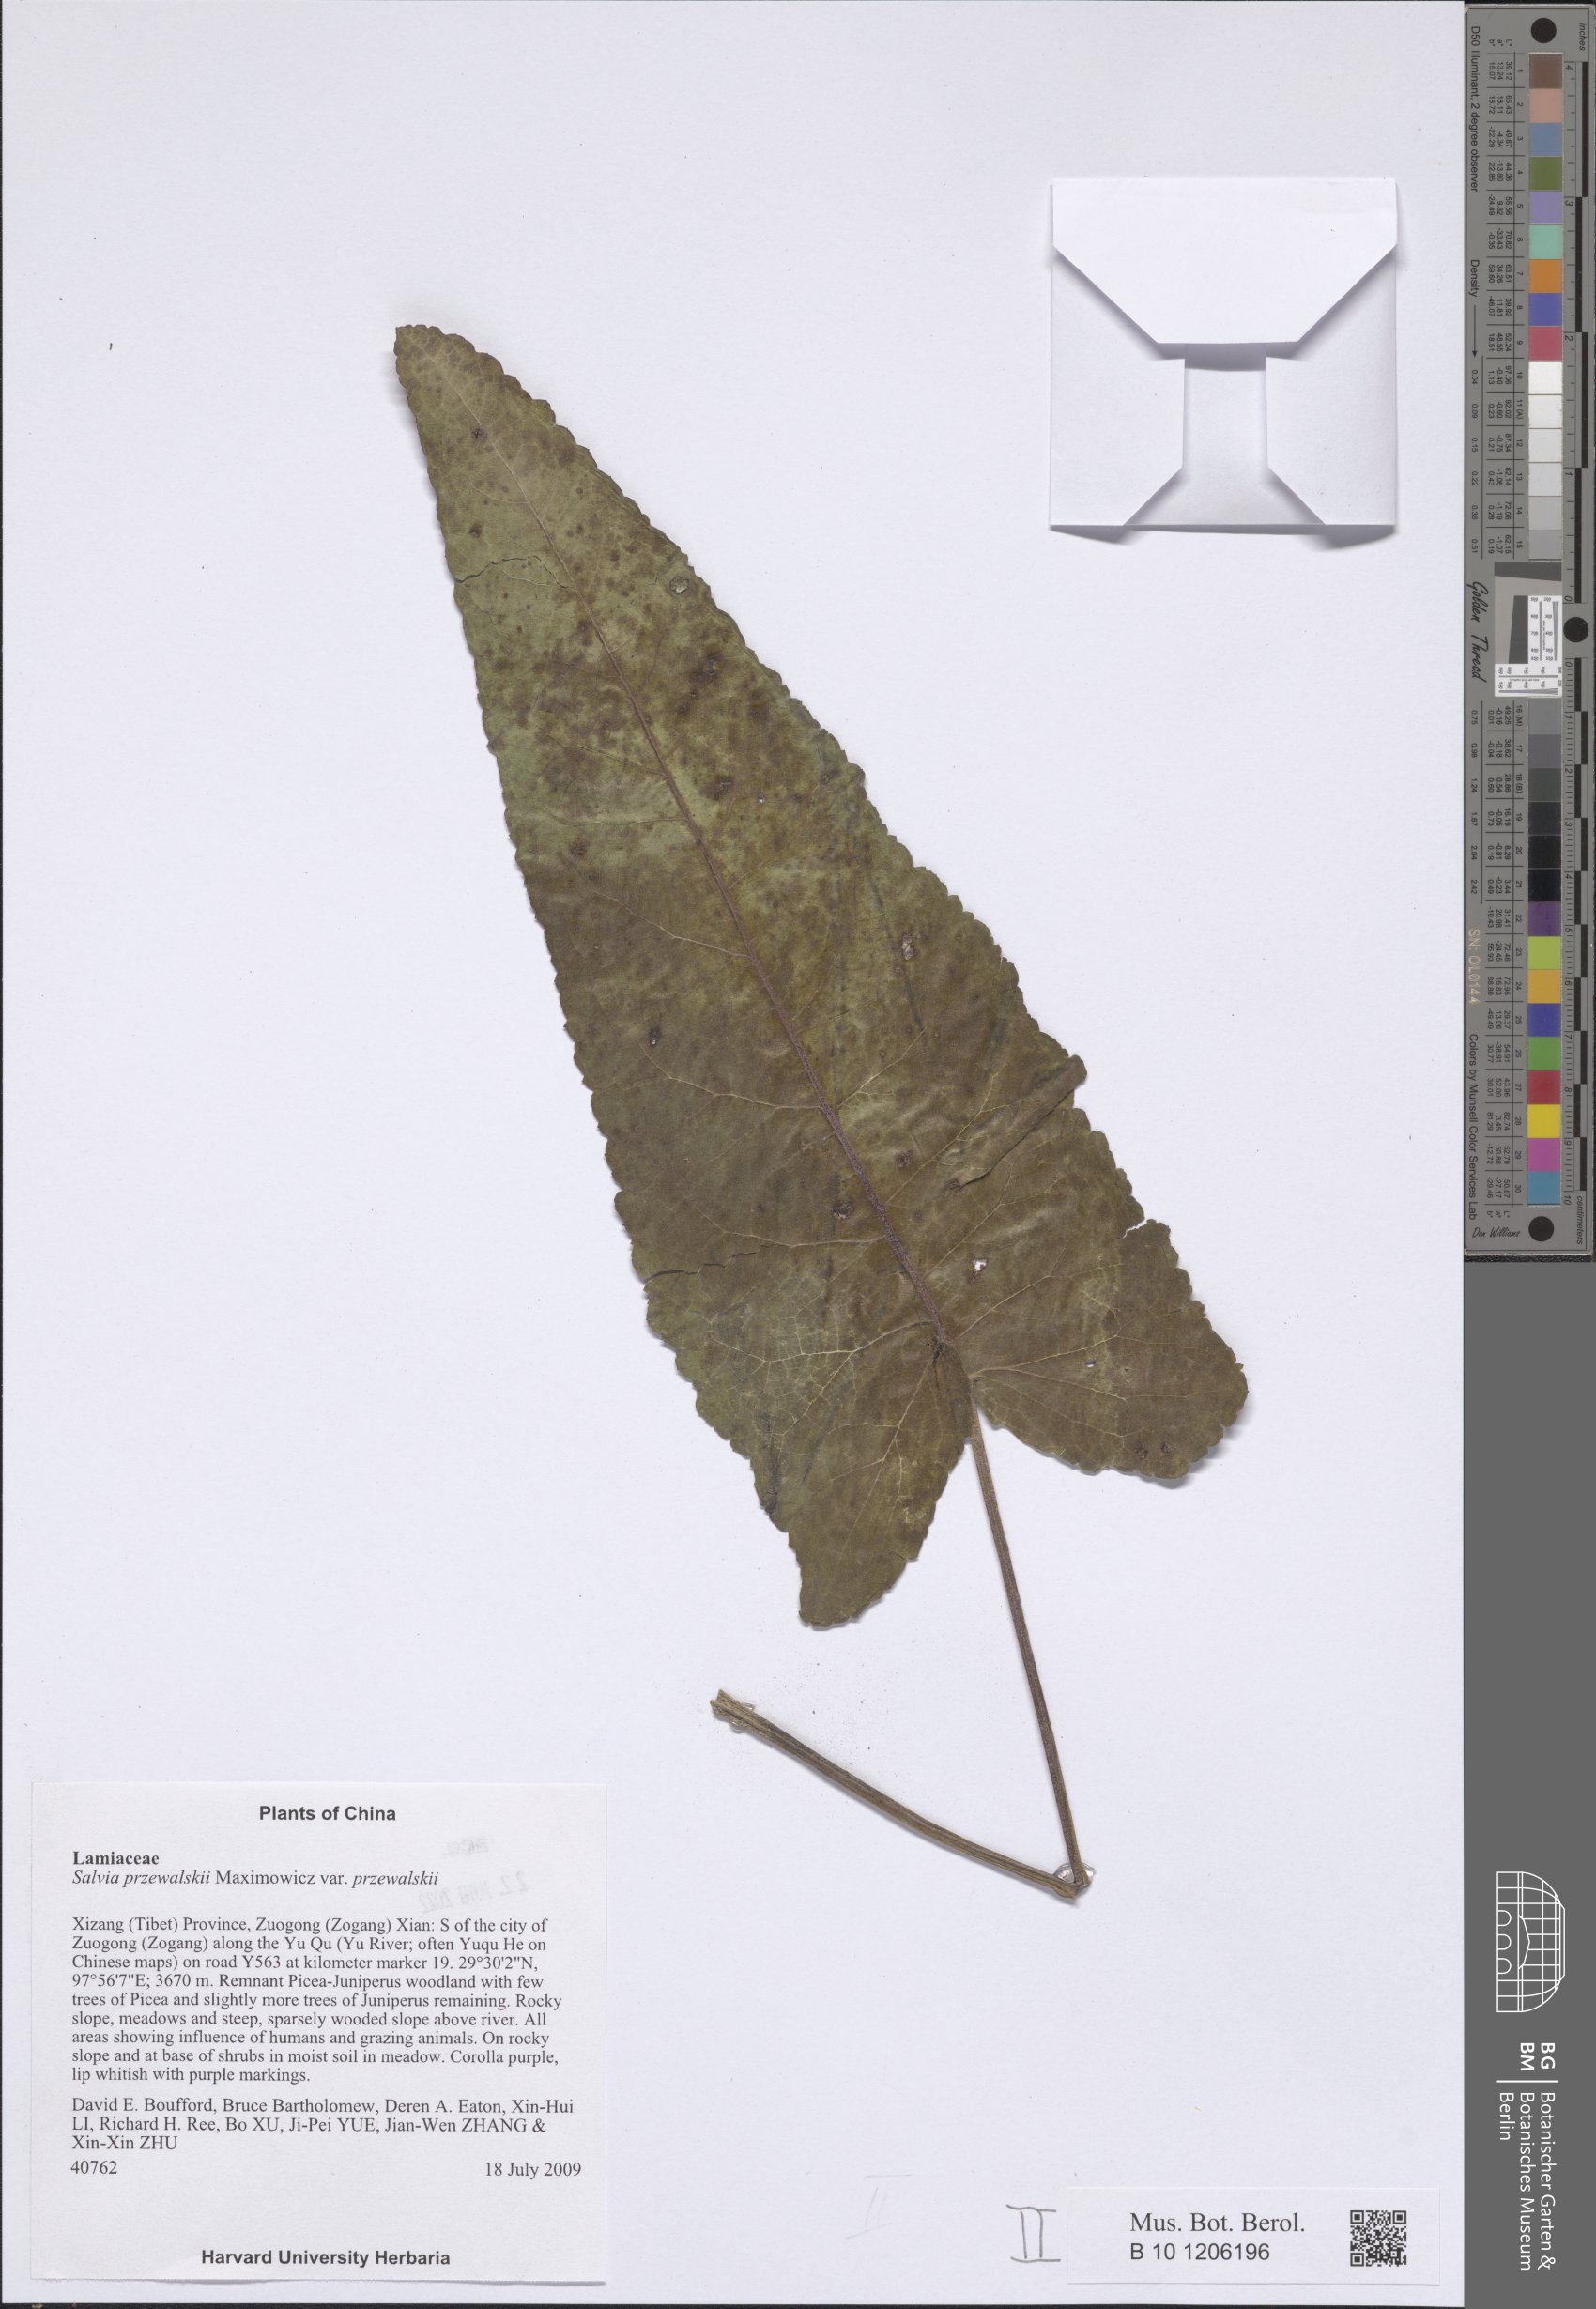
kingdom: Plantae
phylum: Tracheophyta
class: Magnoliopsida
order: Lamiales
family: Lamiaceae
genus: Salvia
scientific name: Salvia przewalskii
